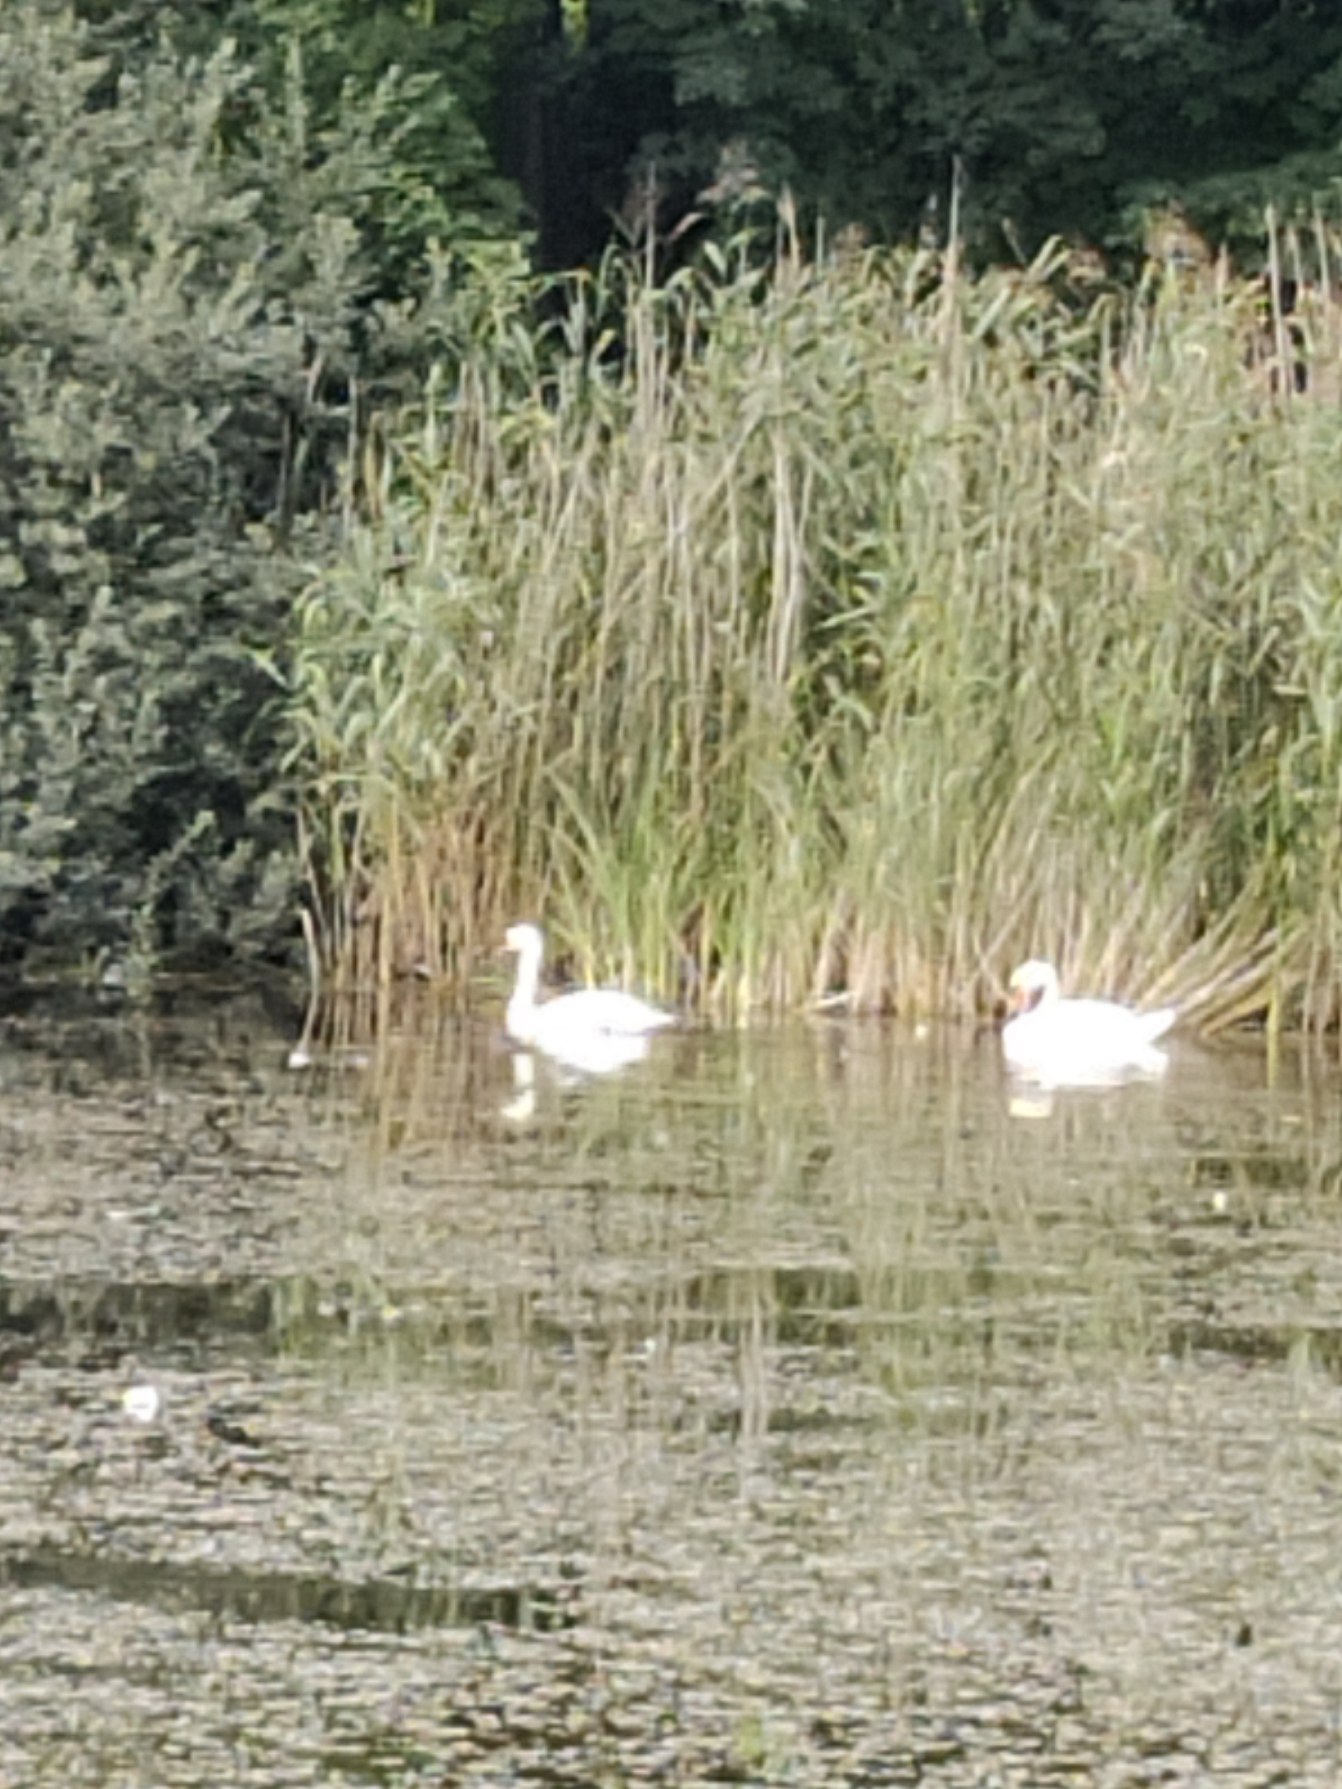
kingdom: Animalia
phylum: Chordata
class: Aves
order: Anseriformes
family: Anatidae
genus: Cygnus
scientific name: Cygnus olor
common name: Knopsvane
